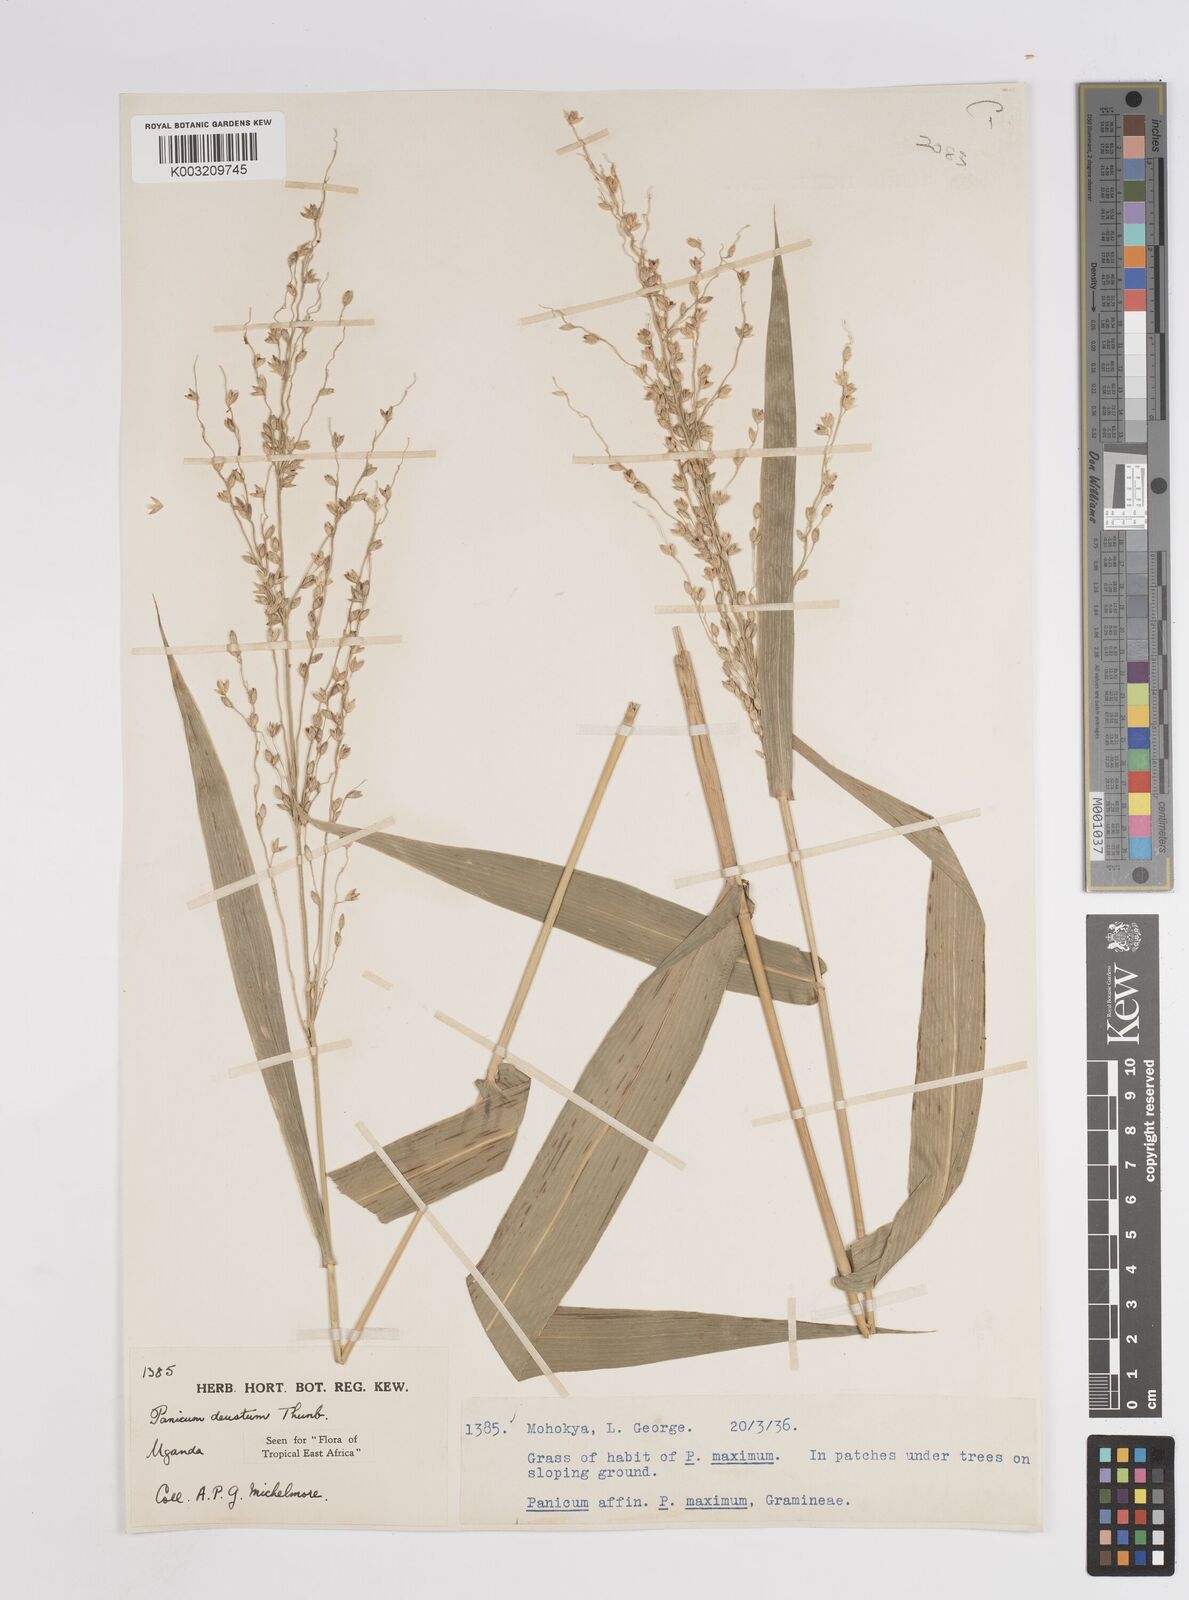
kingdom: Plantae
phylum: Tracheophyta
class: Liliopsida
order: Poales
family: Poaceae
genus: Panicum
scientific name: Panicum
